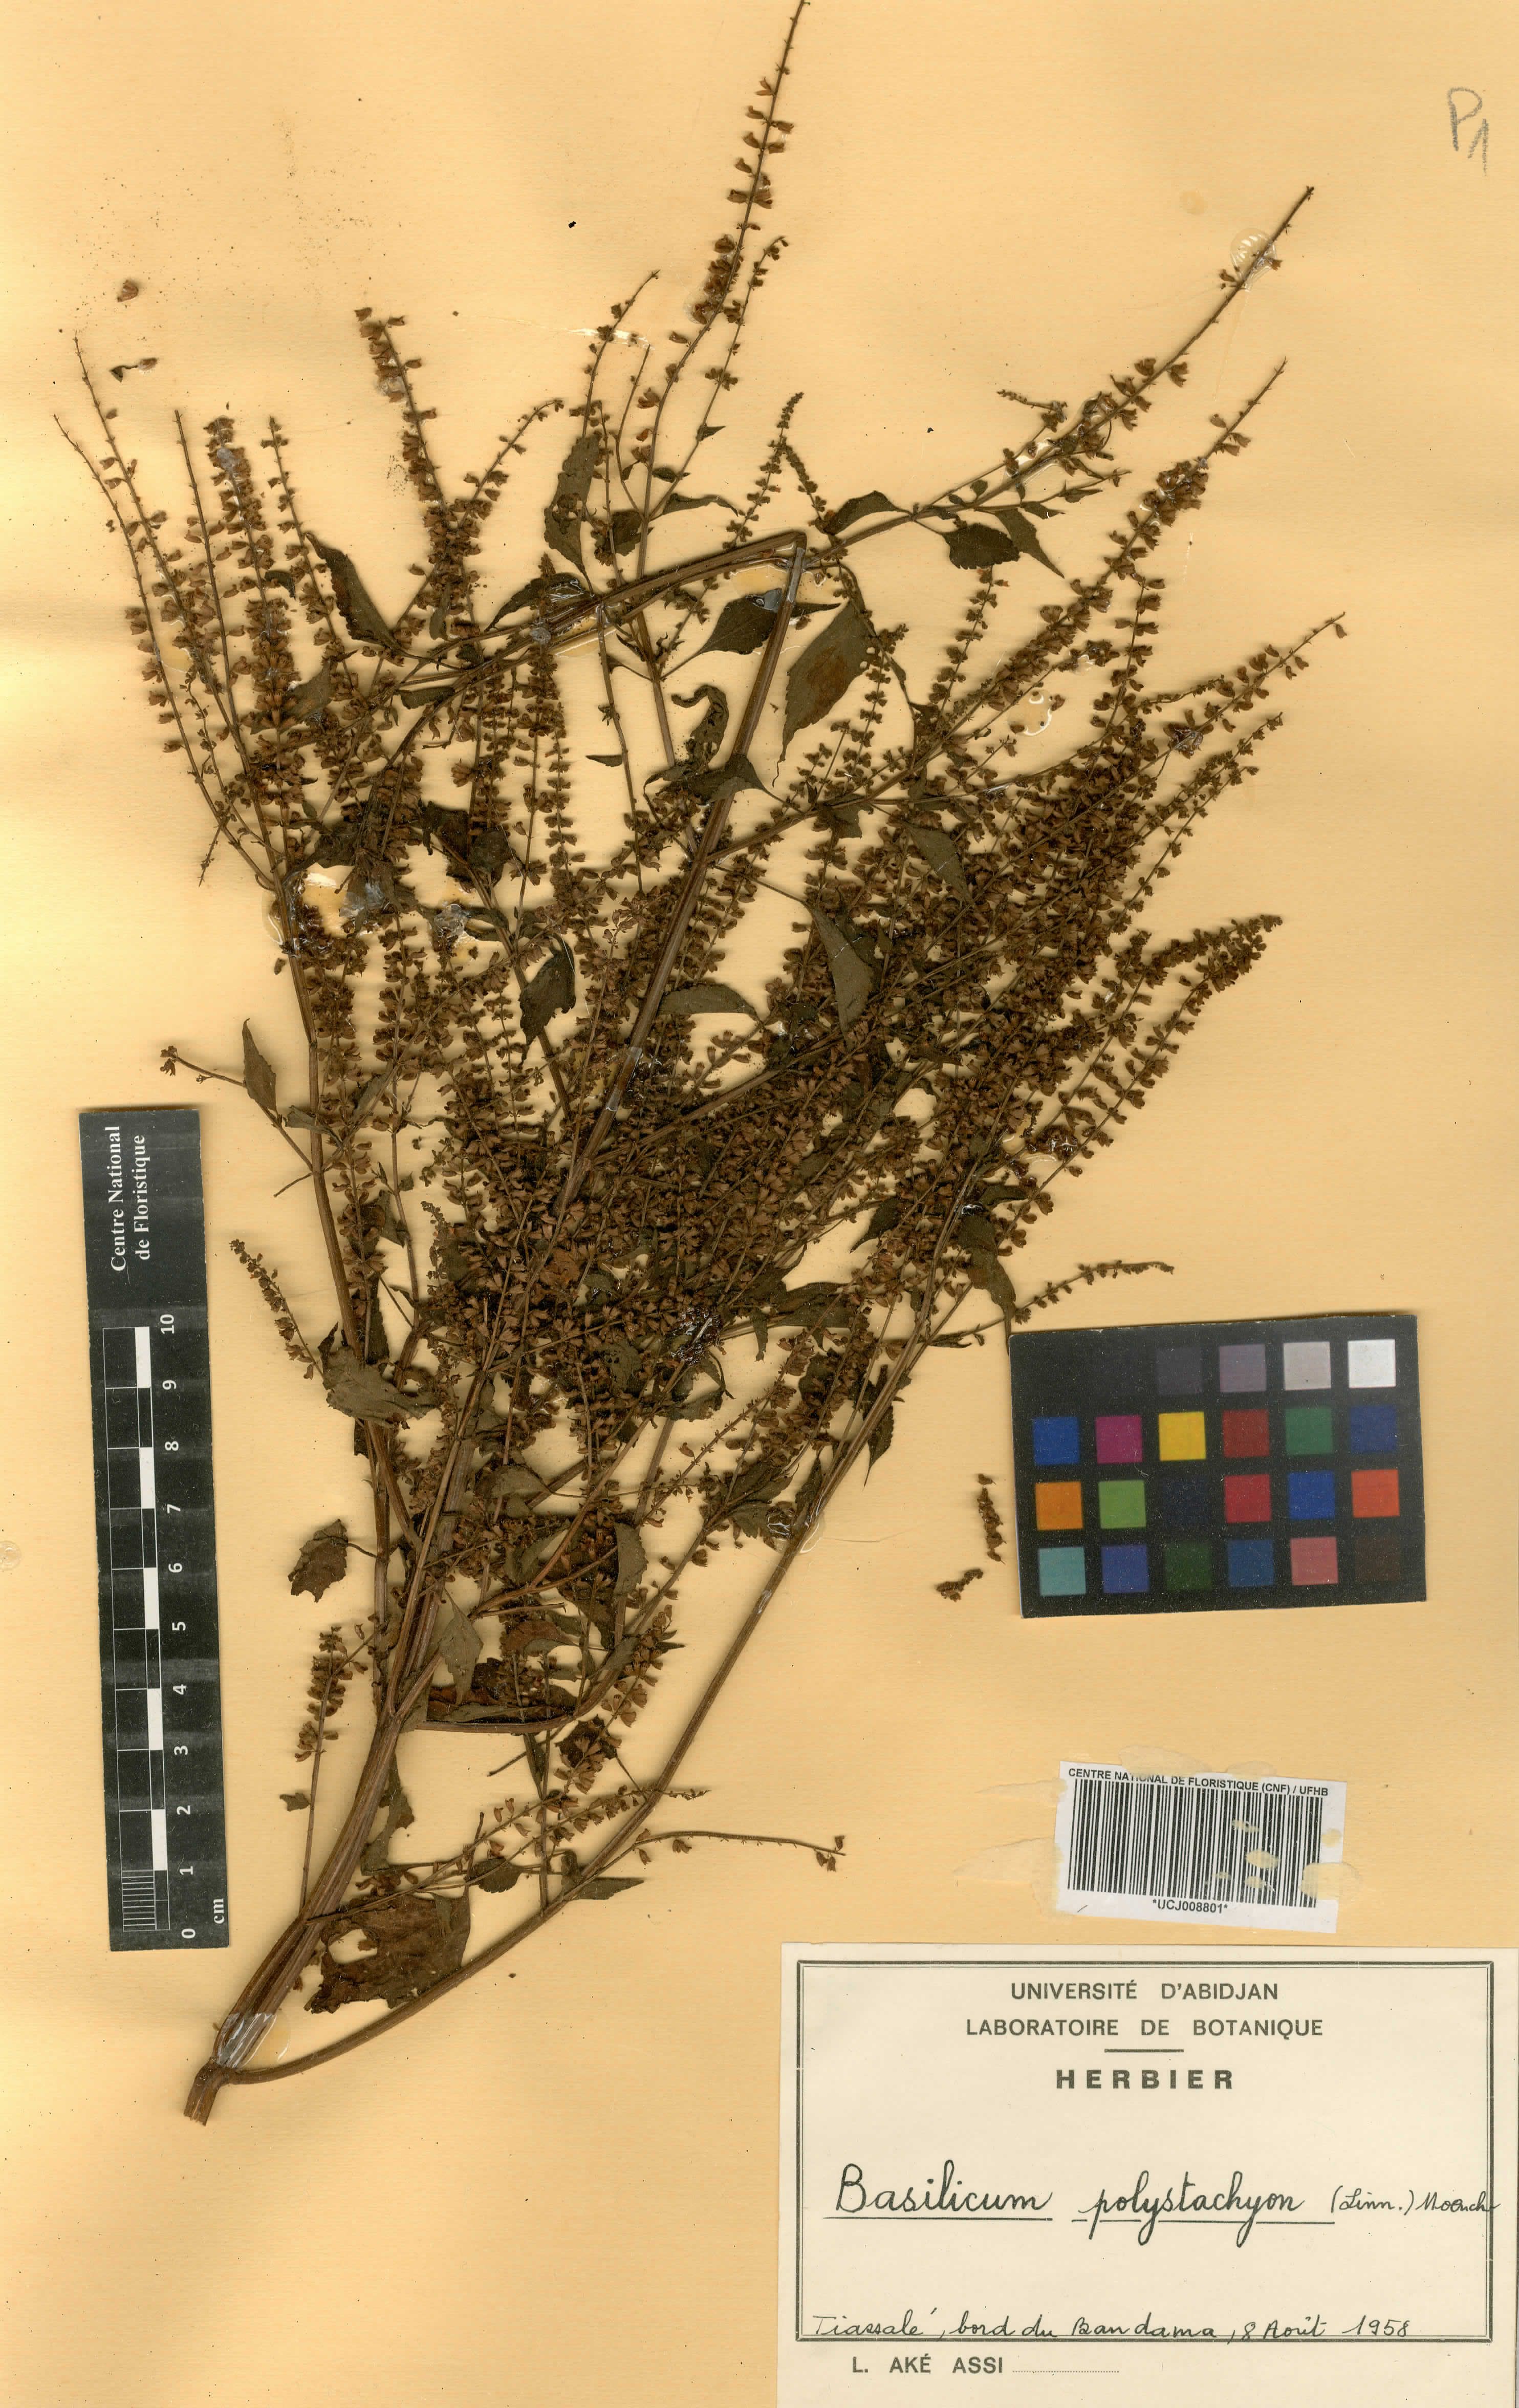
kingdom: Plantae
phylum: Tracheophyta
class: Magnoliopsida
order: Lamiales
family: Lamiaceae
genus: Basilicum
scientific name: Basilicum polystachyon
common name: Musk-basil
